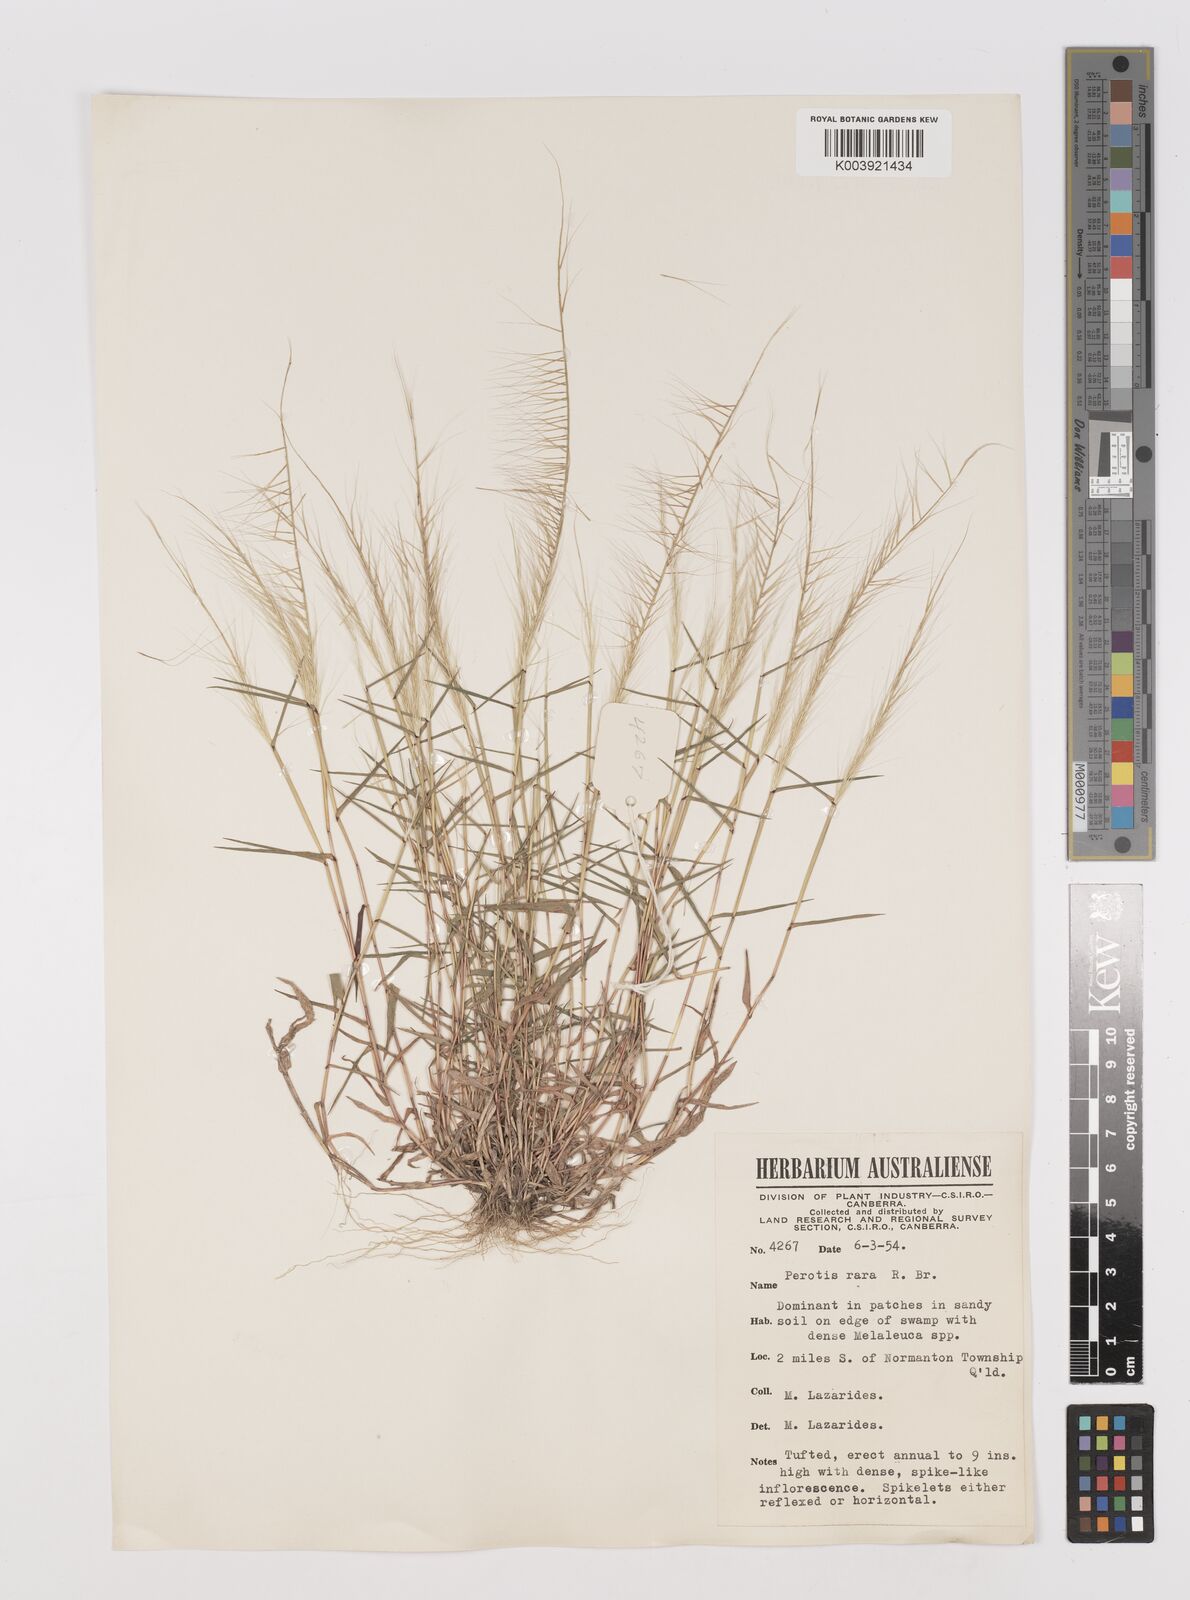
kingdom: Plantae
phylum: Tracheophyta
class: Liliopsida
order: Poales
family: Poaceae
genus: Perotis
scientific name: Perotis rara
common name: Comet grass
